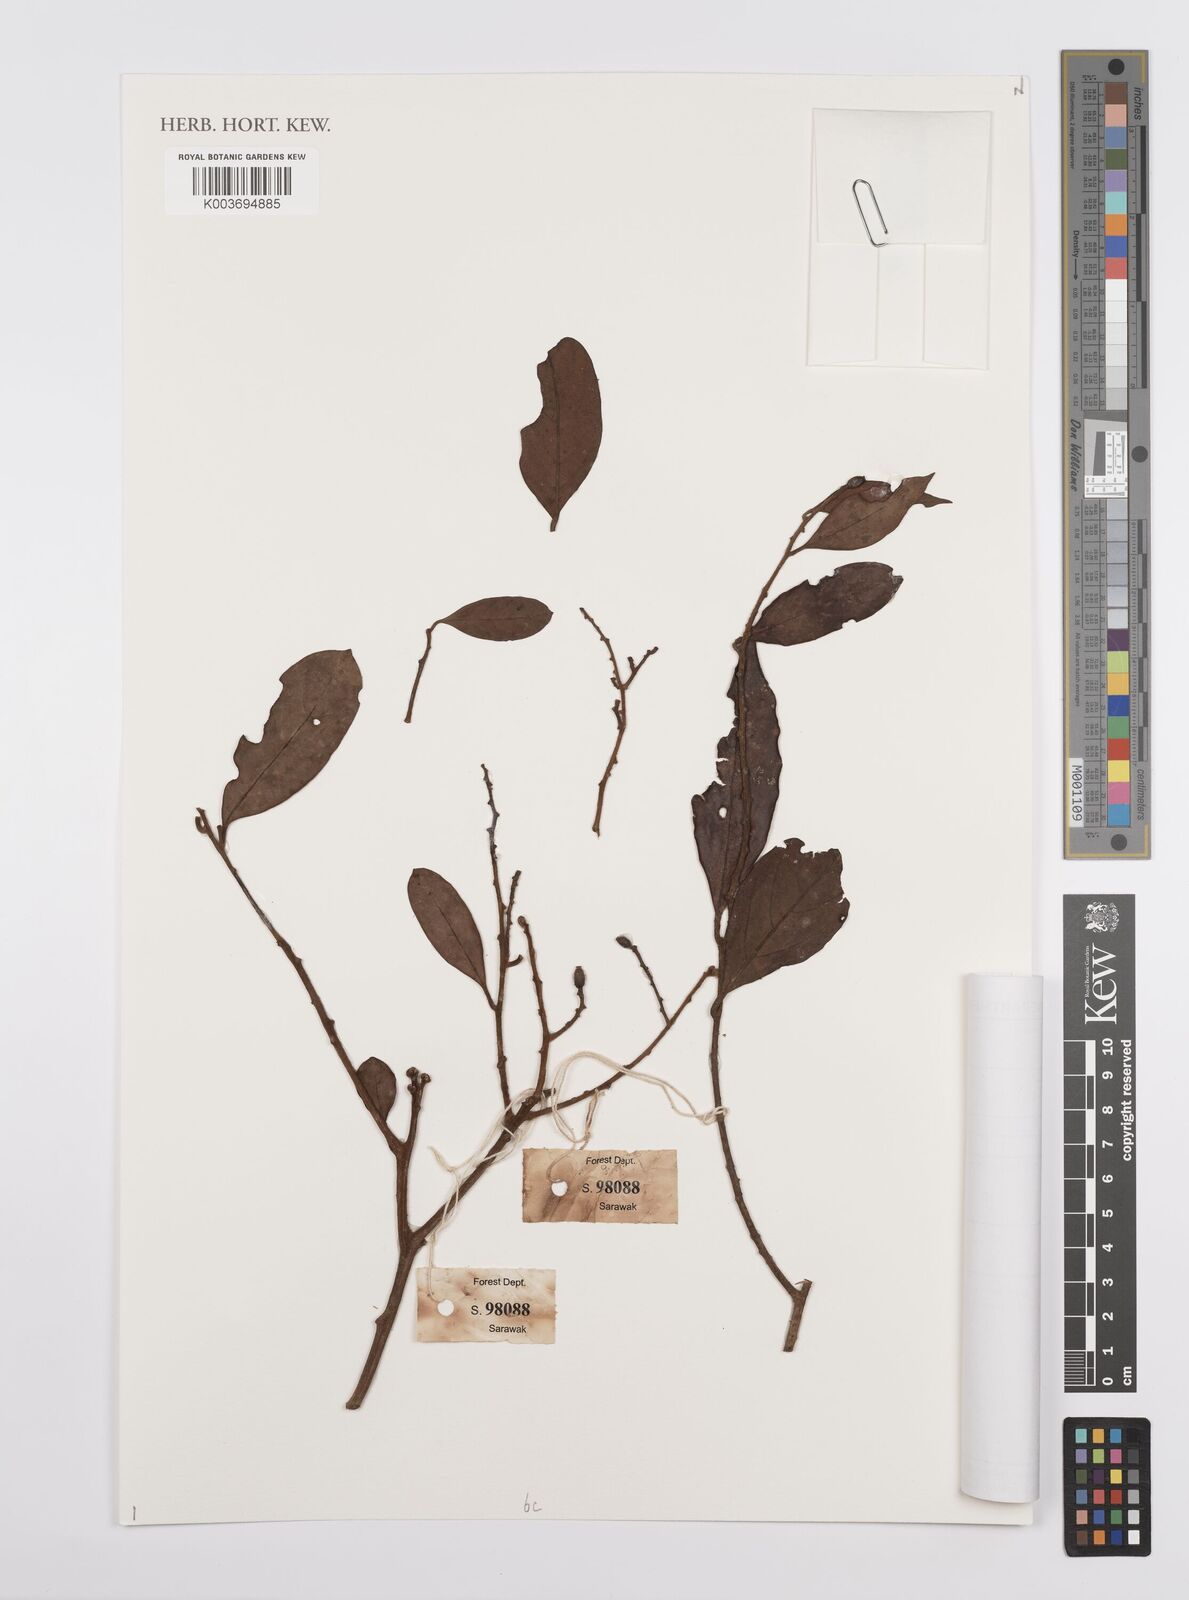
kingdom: Plantae
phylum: Tracheophyta
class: Magnoliopsida
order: Laurales
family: Lauraceae
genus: Cryptocarya
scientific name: Cryptocarya
